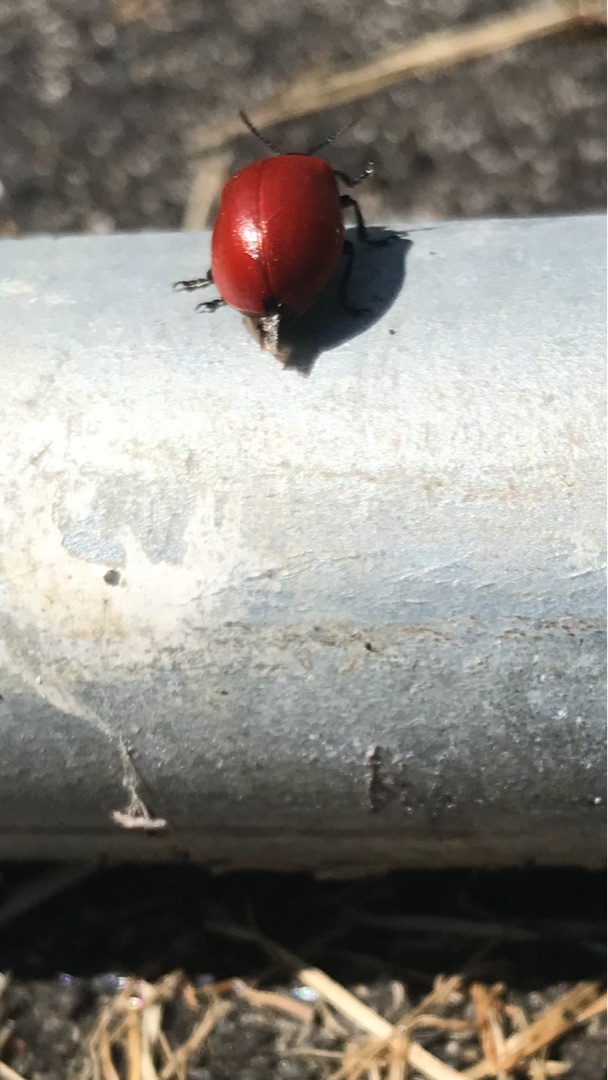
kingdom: Animalia
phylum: Arthropoda
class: Insecta
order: Coleoptera
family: Chrysomelidae
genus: Chrysomela
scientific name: Chrysomela populi
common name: Poppelbladbille
